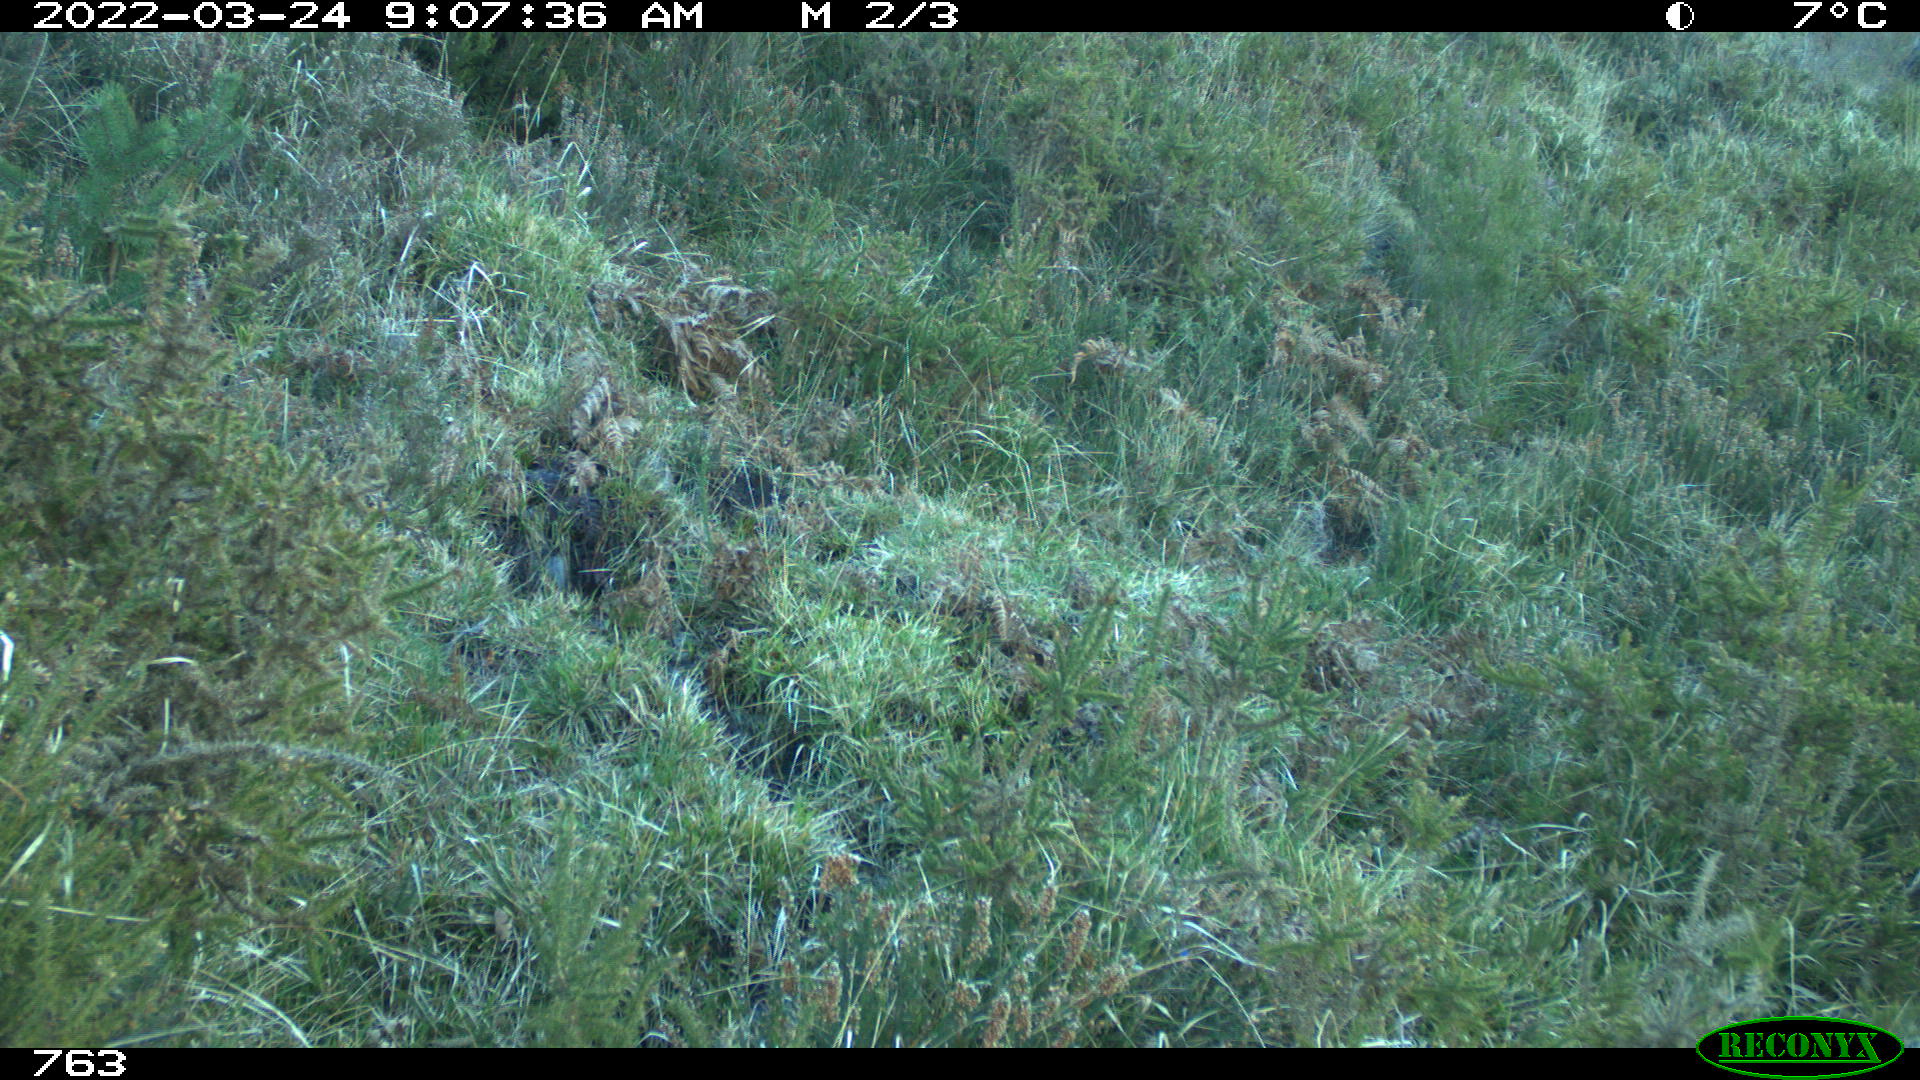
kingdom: Animalia
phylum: Chordata
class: Mammalia
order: Artiodactyla
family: Cervidae
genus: Capreolus
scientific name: Capreolus capreolus
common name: Western roe deer
